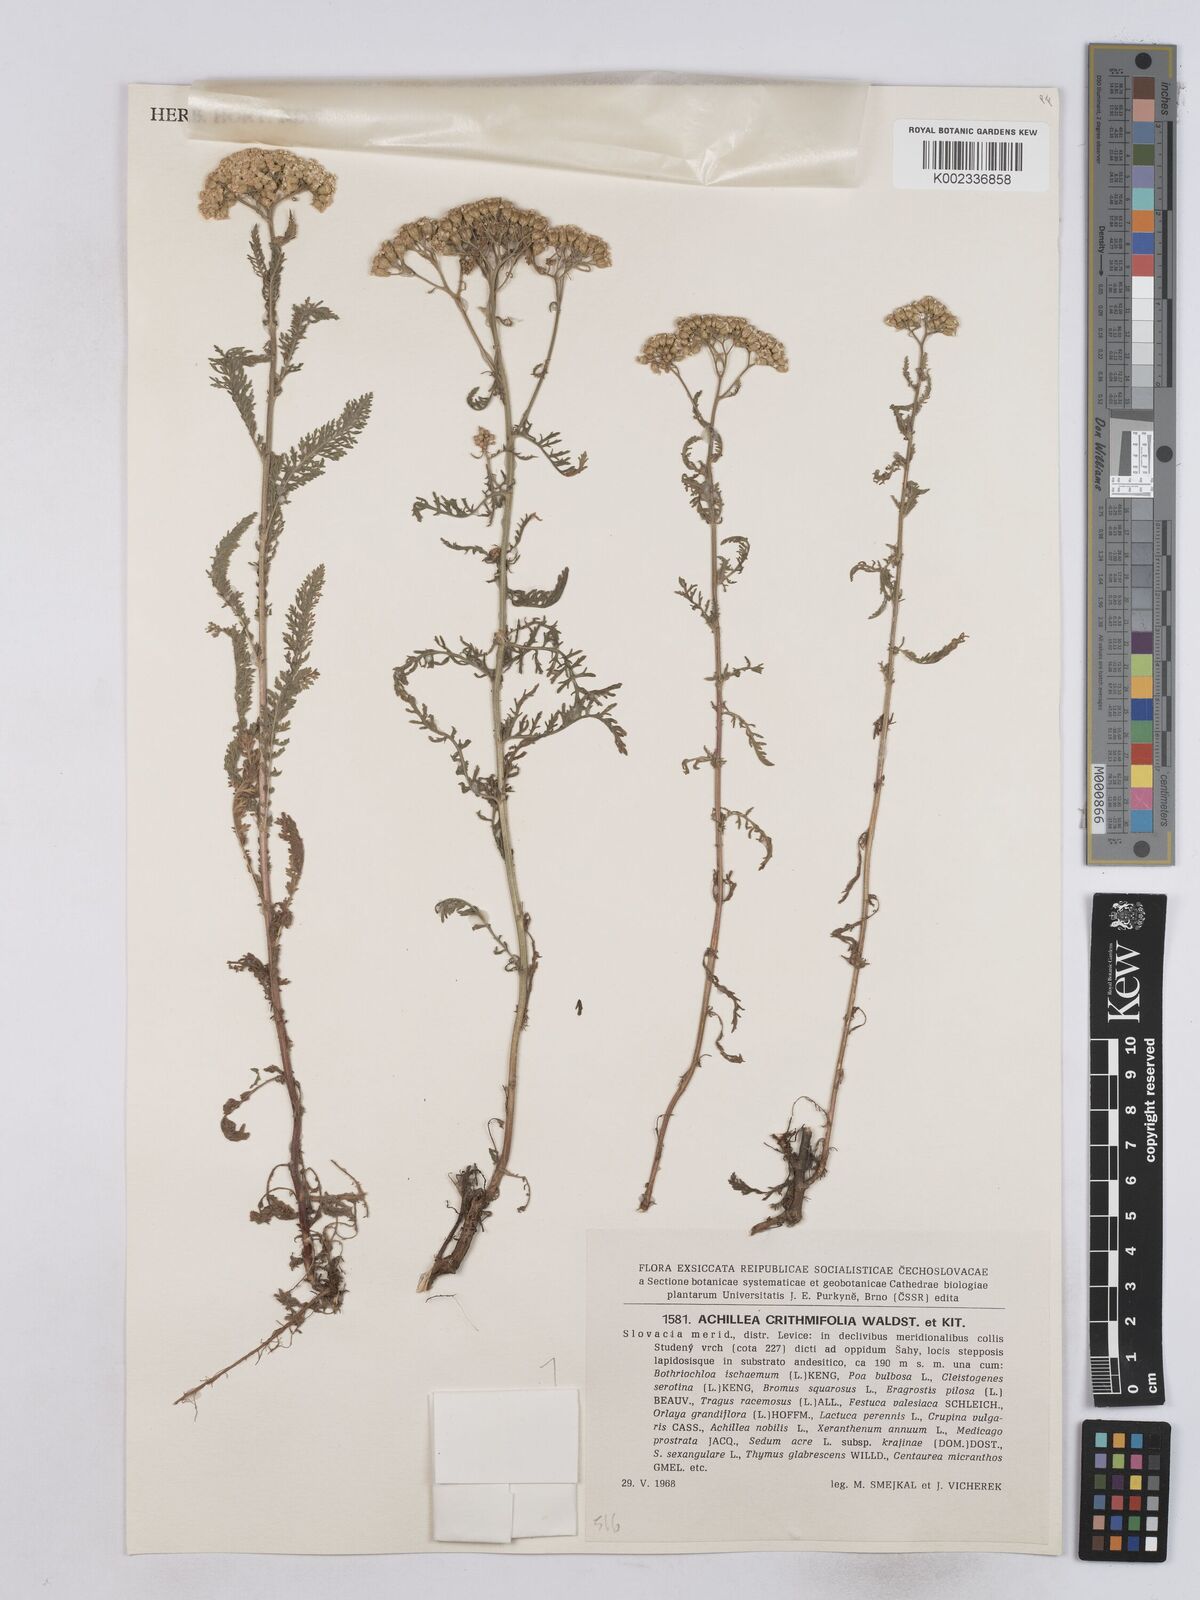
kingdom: Plantae
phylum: Tracheophyta
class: Magnoliopsida
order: Asterales
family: Asteraceae
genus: Achillea
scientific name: Achillea crithmifolia
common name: Yarrow
